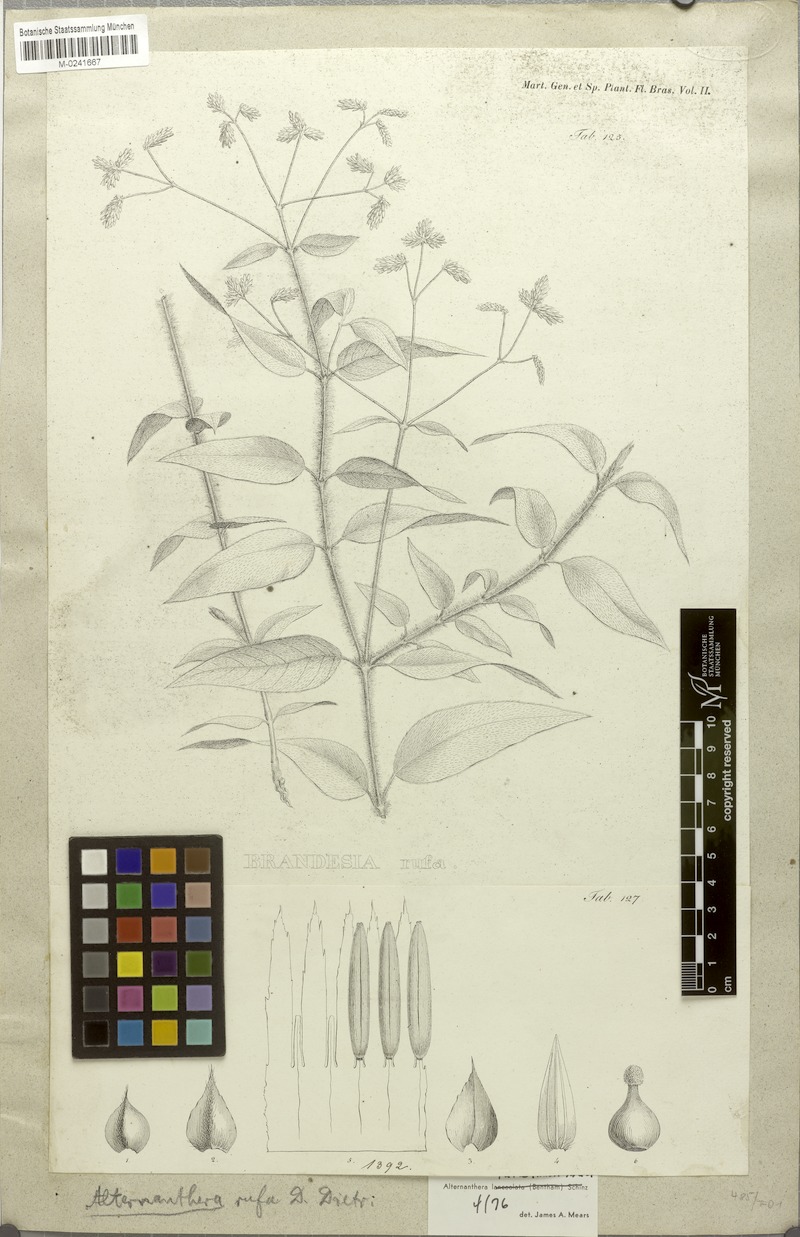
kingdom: Plantae
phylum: Tracheophyta
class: Magnoliopsida
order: Caryophyllales
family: Amaranthaceae
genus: Alternanthera
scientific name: Alternanthera rufa
